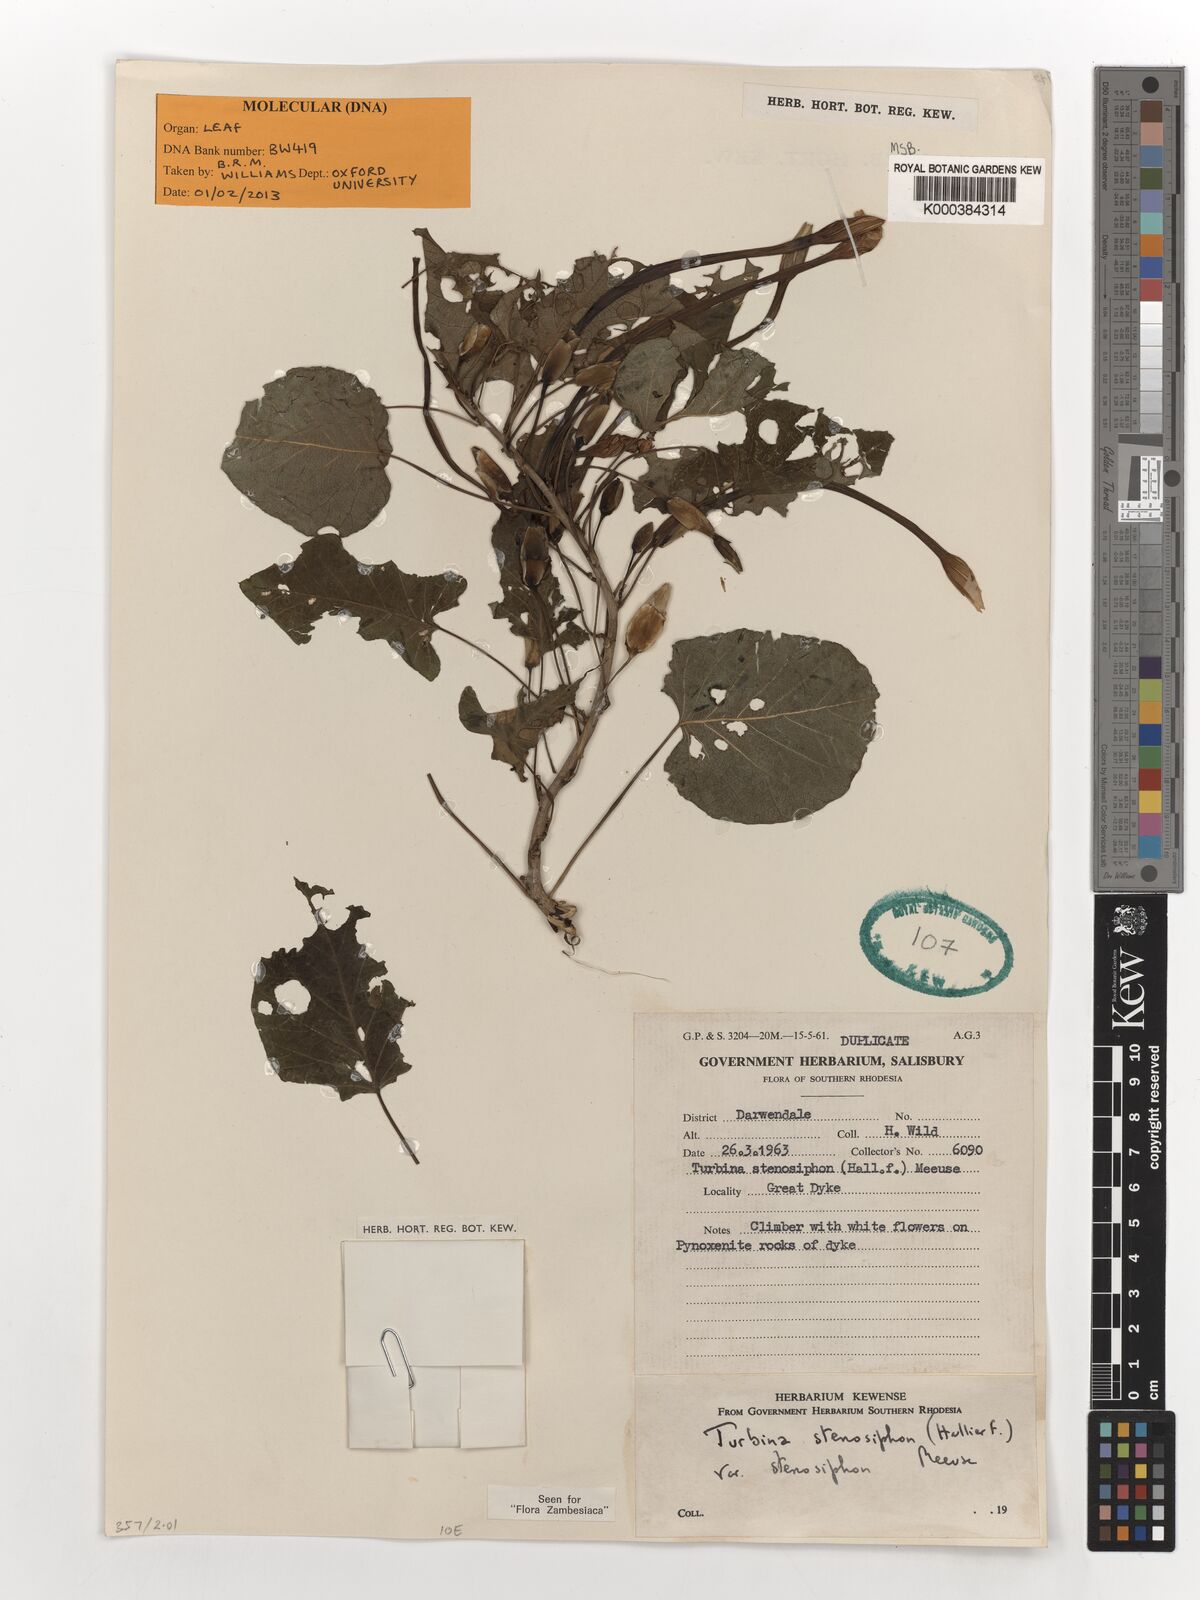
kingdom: Plantae
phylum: Tracheophyta
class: Magnoliopsida
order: Solanales
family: Convolvulaceae
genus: Ipomoea
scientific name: Ipomoea stenosiphon
